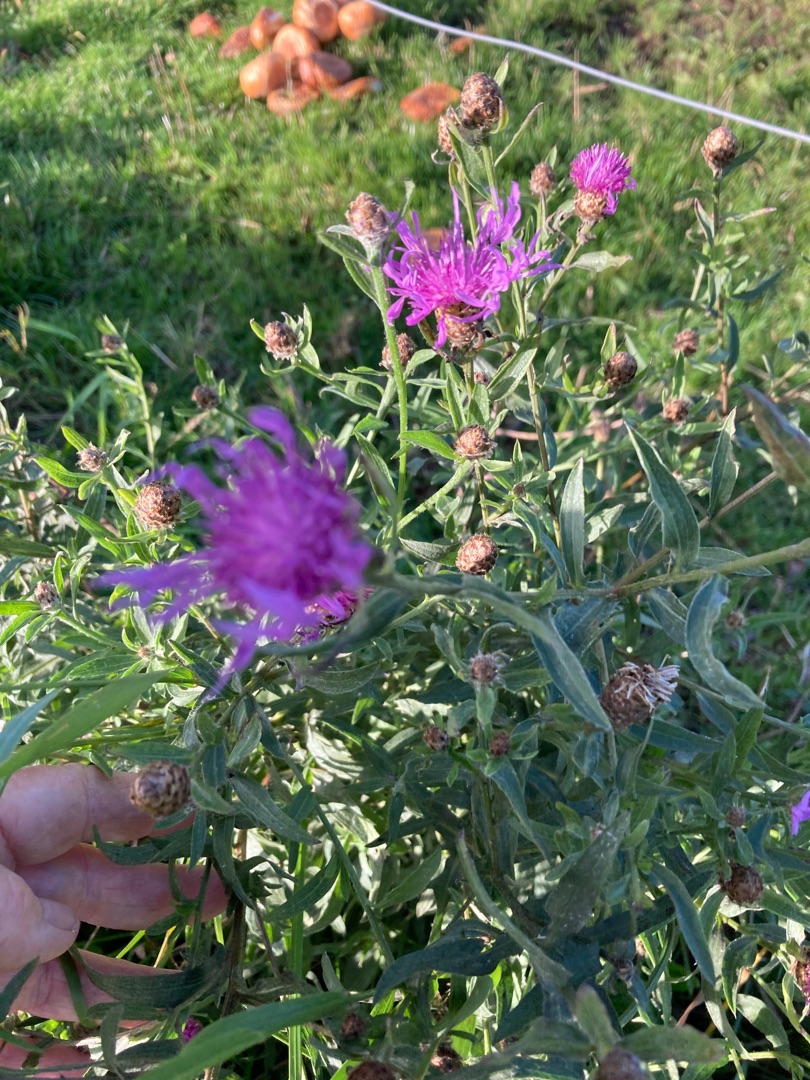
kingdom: Plantae
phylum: Tracheophyta
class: Magnoliopsida
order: Asterales
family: Asteraceae
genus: Centaurea
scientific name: Centaurea jacea
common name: Almindelig knopurt
